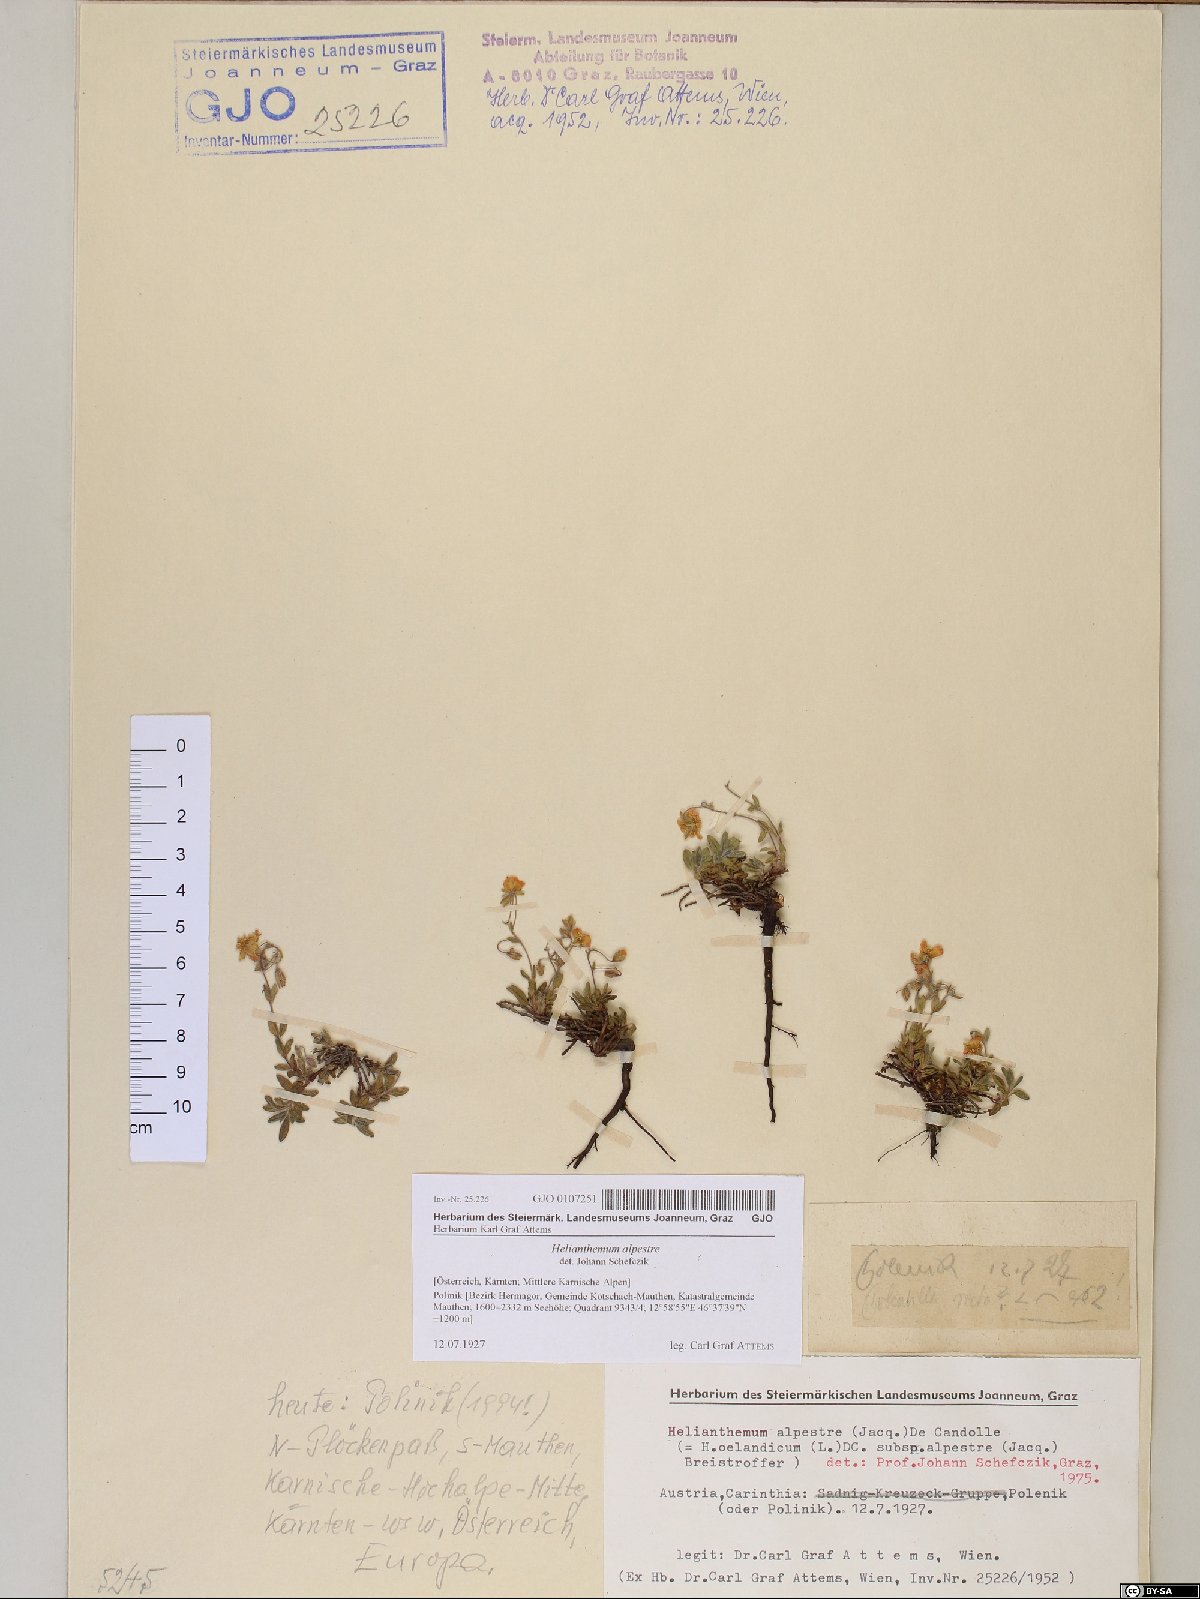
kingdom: Plantae
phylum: Tracheophyta
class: Magnoliopsida
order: Malvales
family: Cistaceae
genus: Helianthemum
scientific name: Helianthemum alpestre
